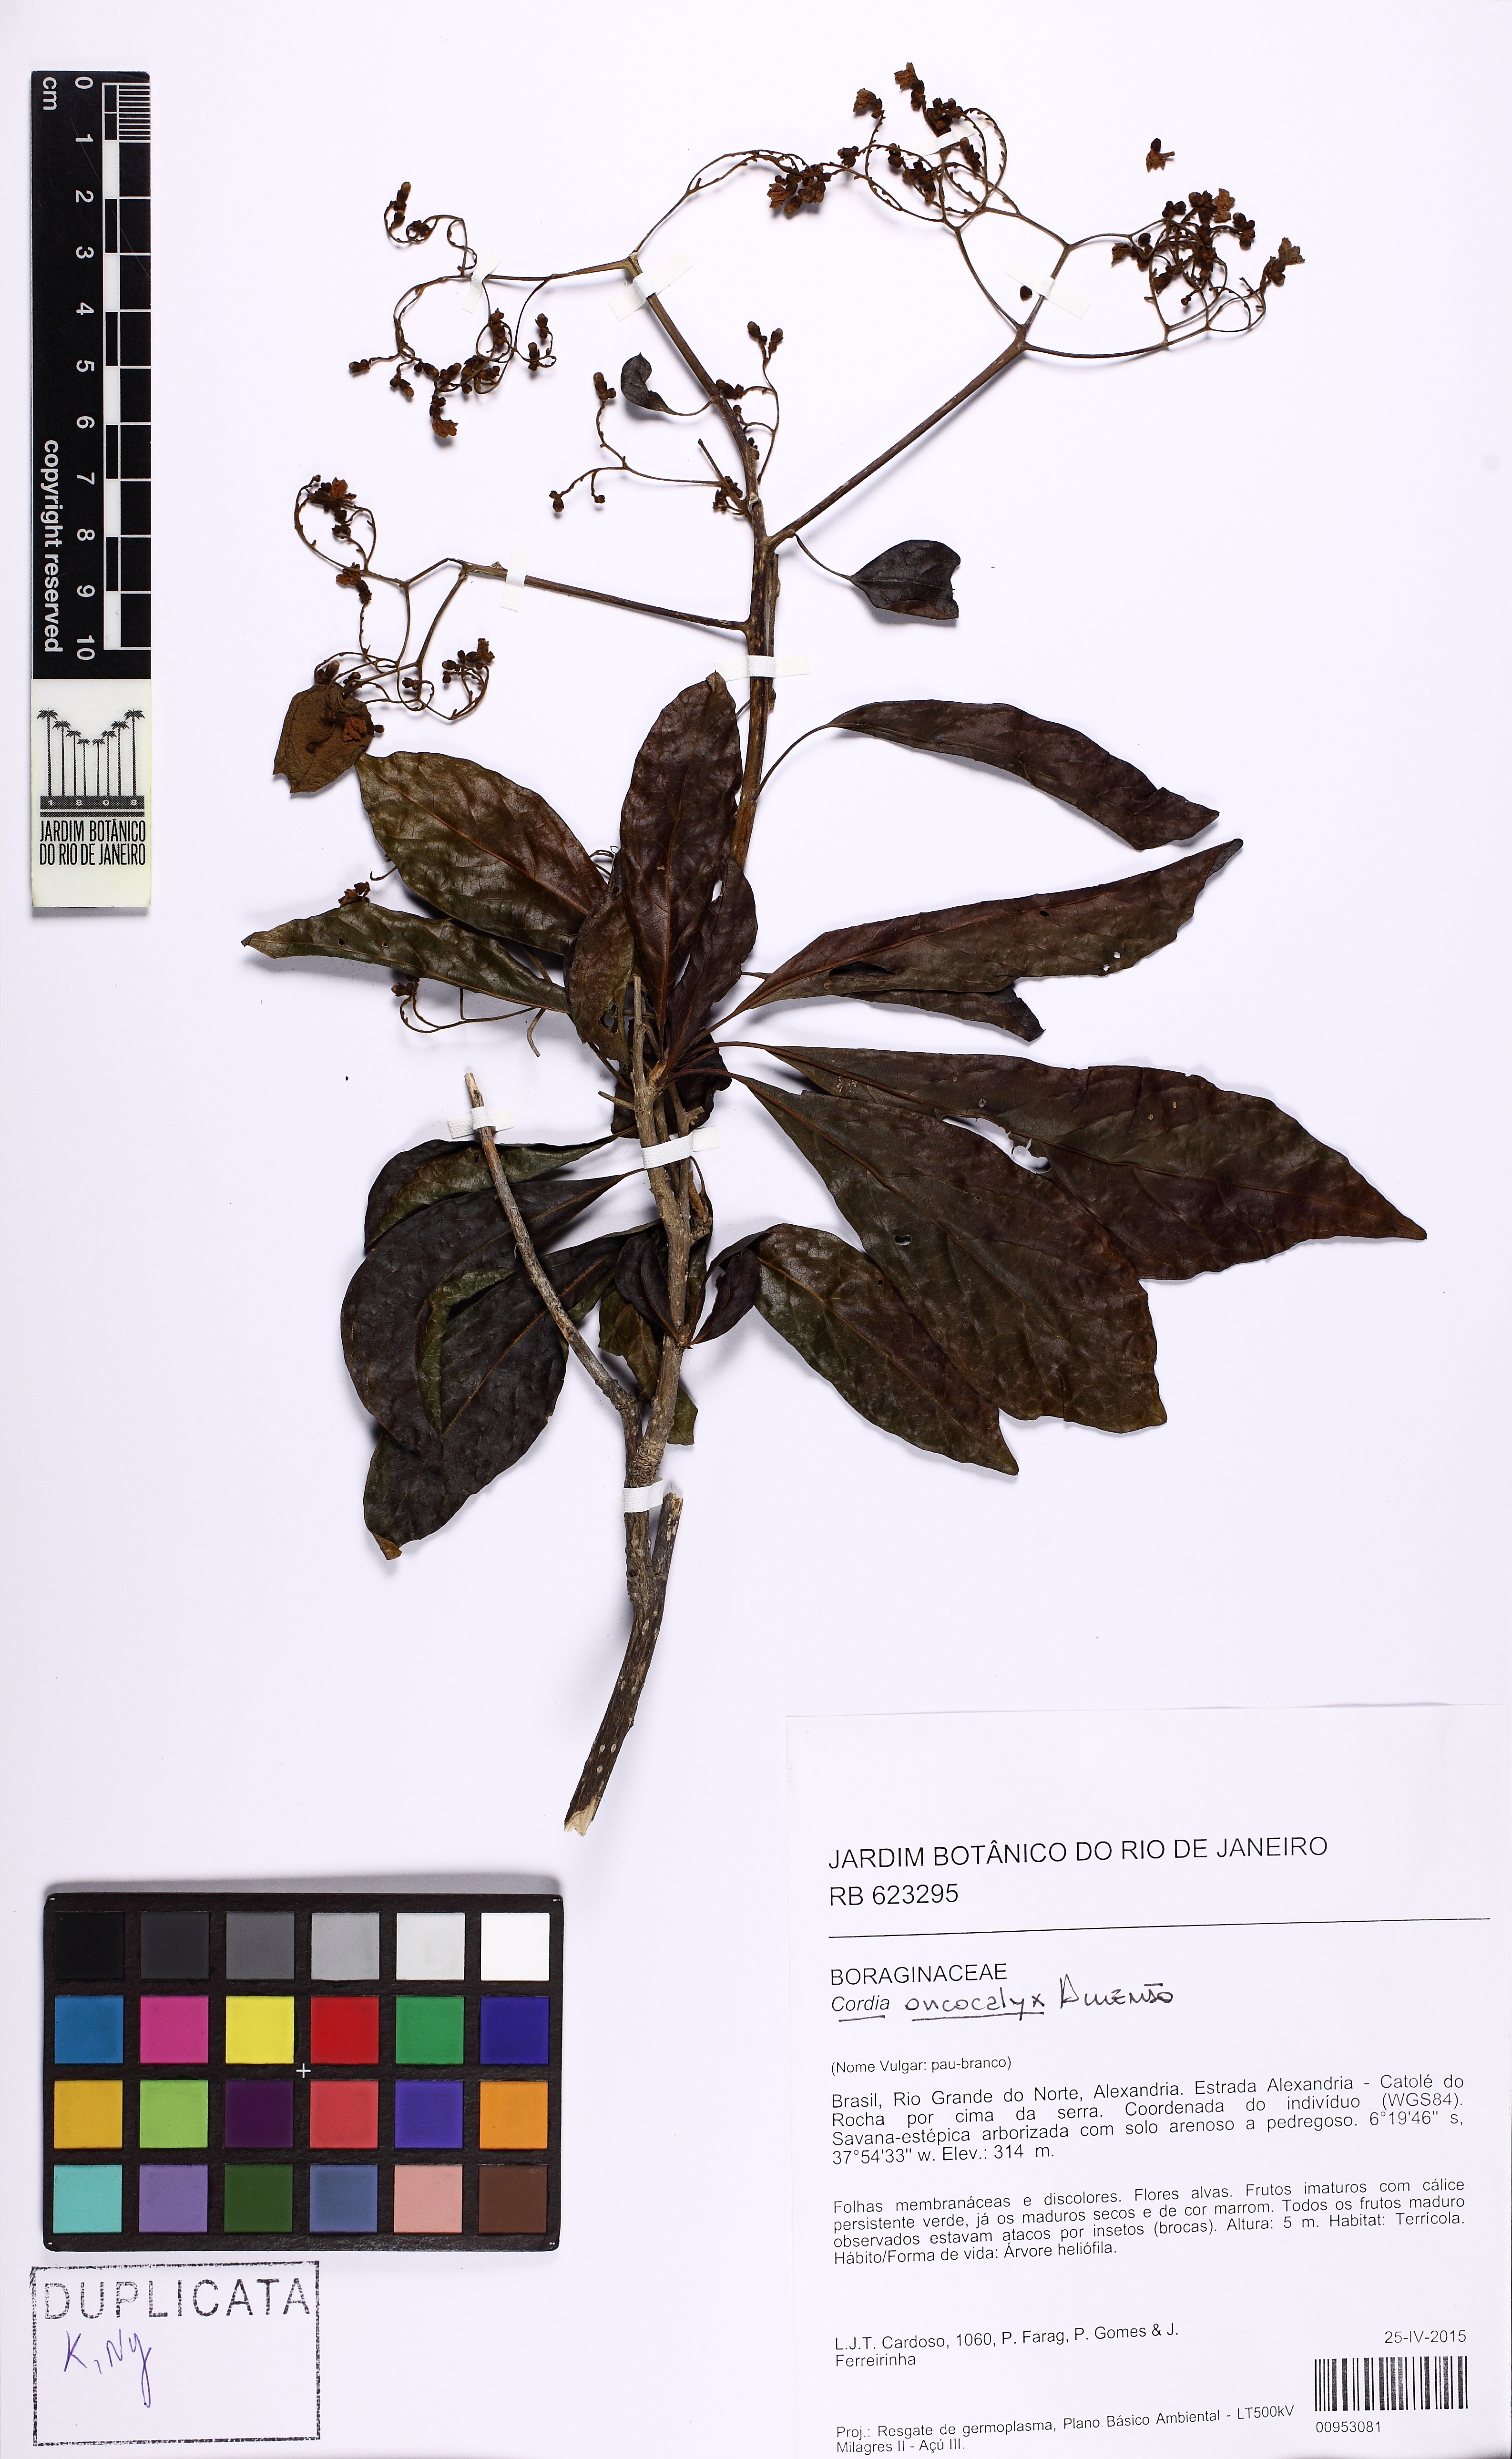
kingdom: Plantae
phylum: Tracheophyta
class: Magnoliopsida
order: Boraginales
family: Cordiaceae
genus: Cordia
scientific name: Cordia oncocalyx
